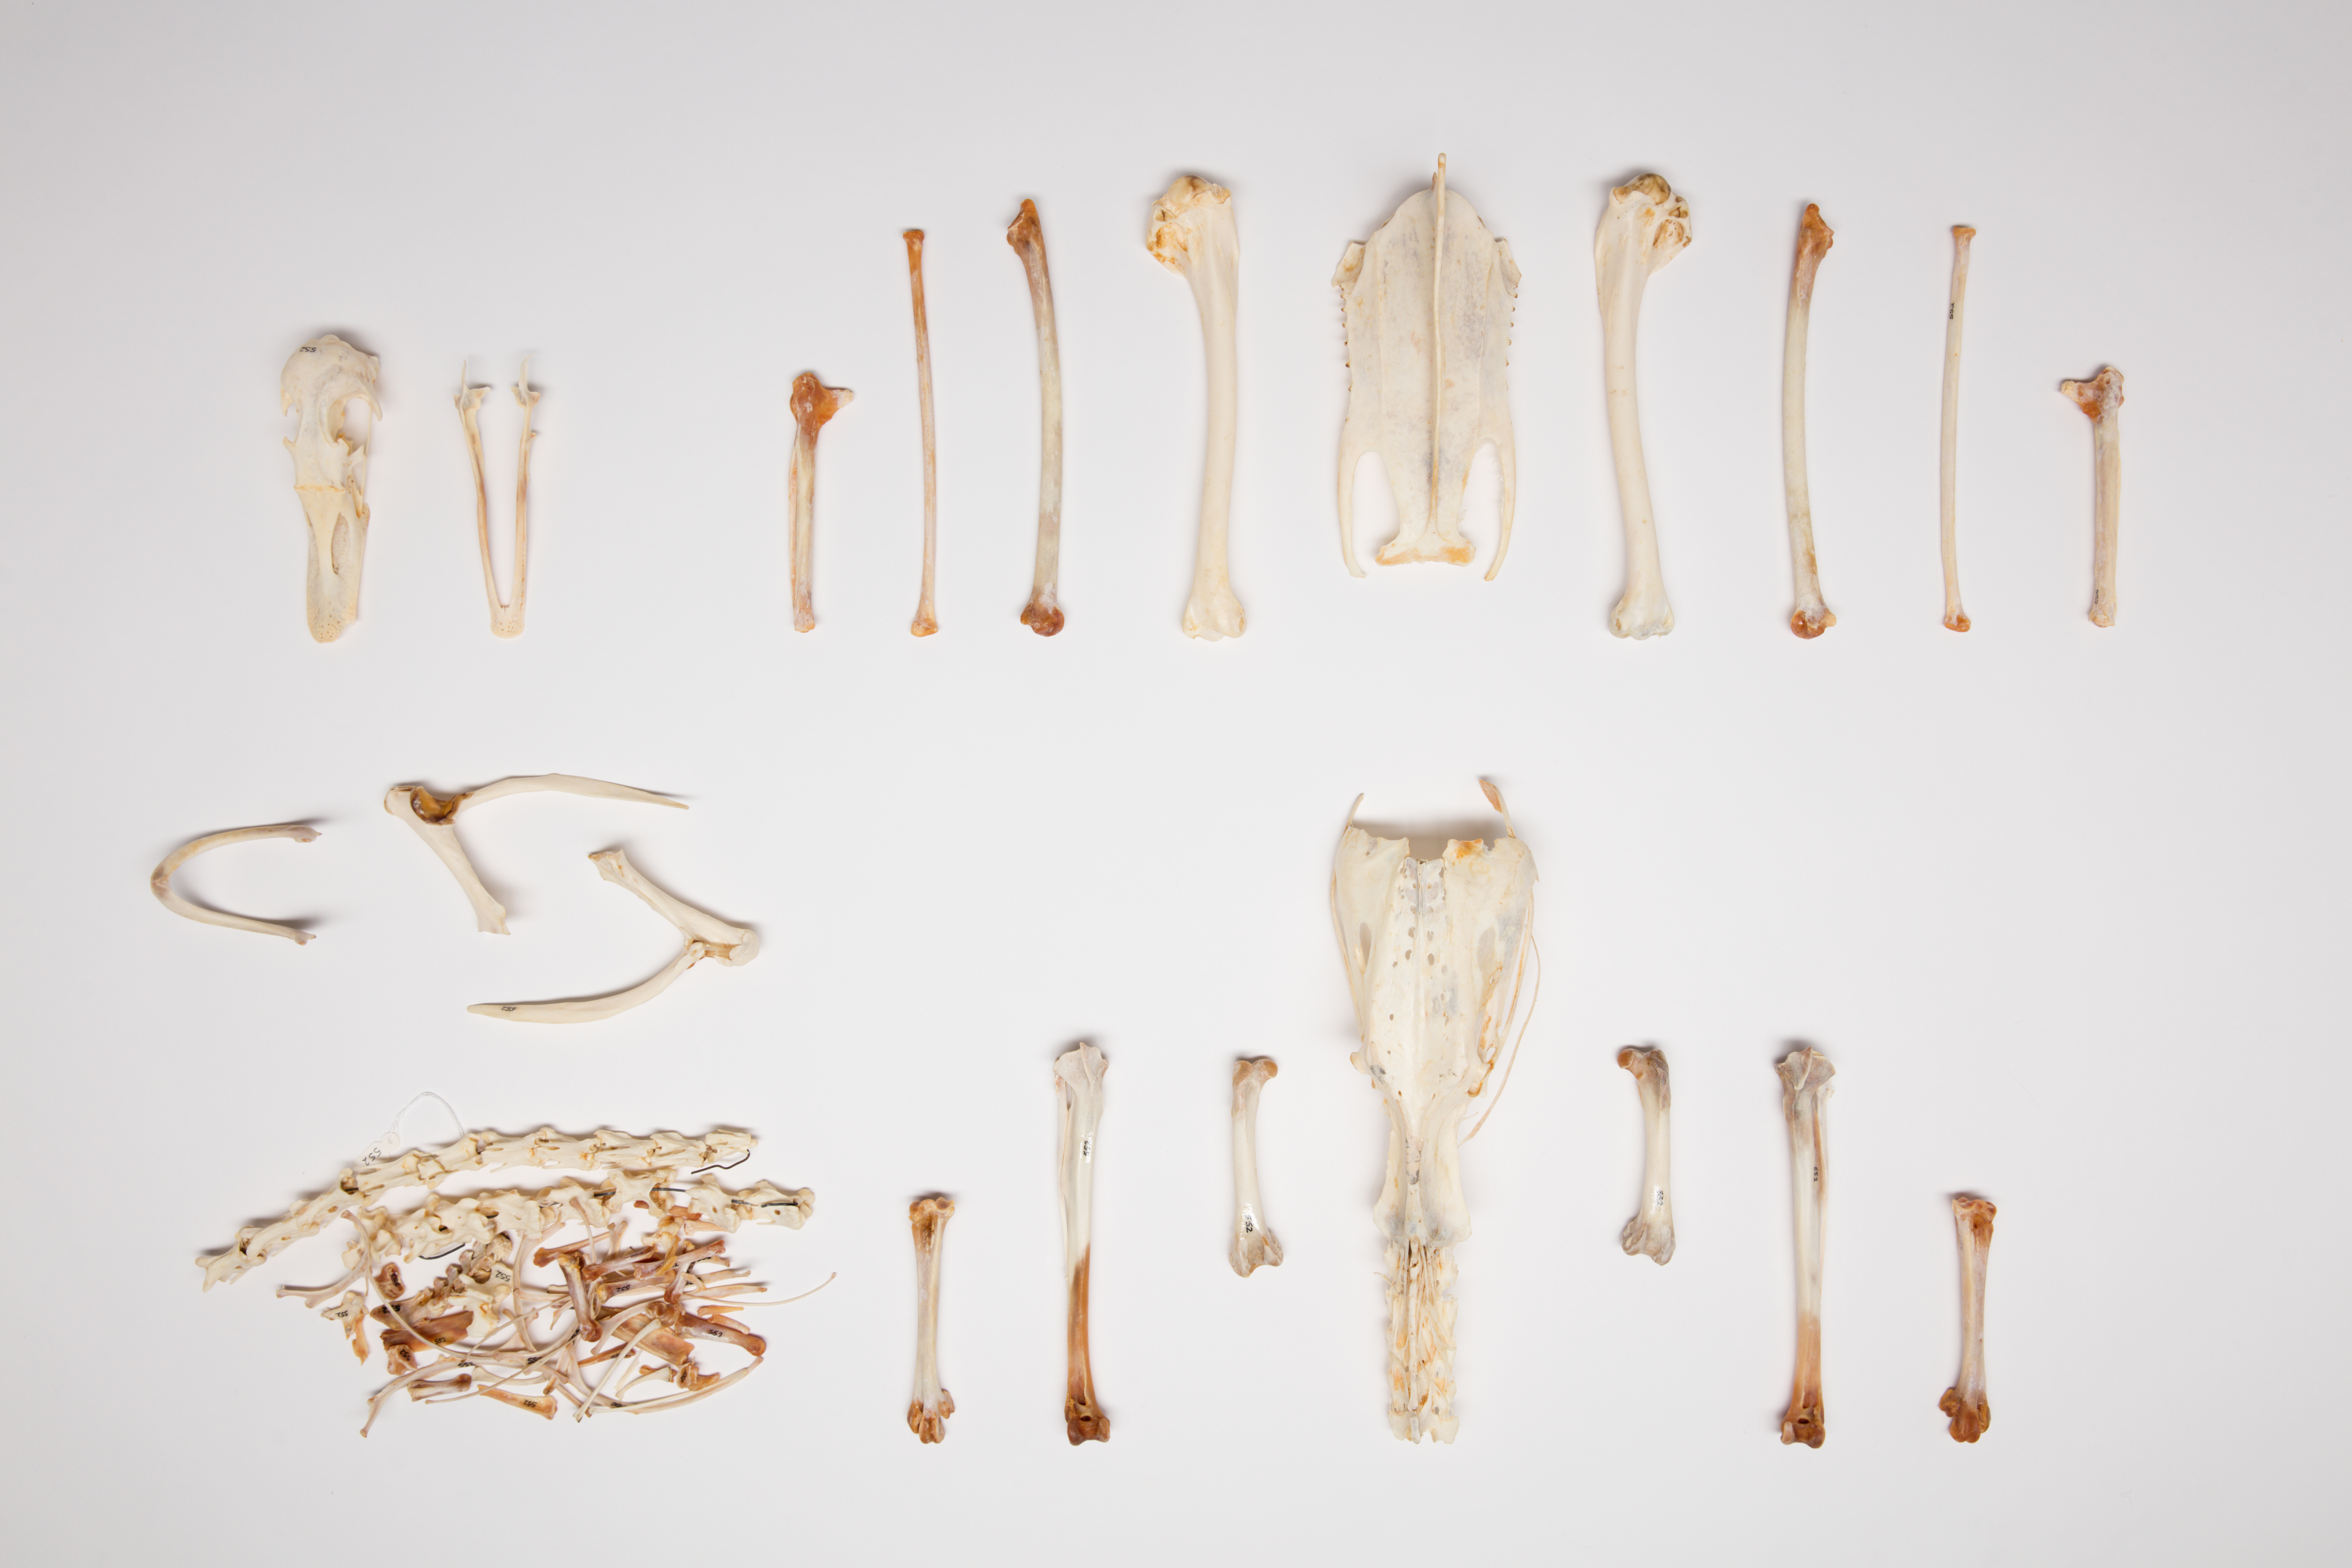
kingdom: Animalia
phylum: Chordata
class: Aves
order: Anseriformes
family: Anatidae
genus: Branta
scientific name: Branta canadensis
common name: Canada goose
